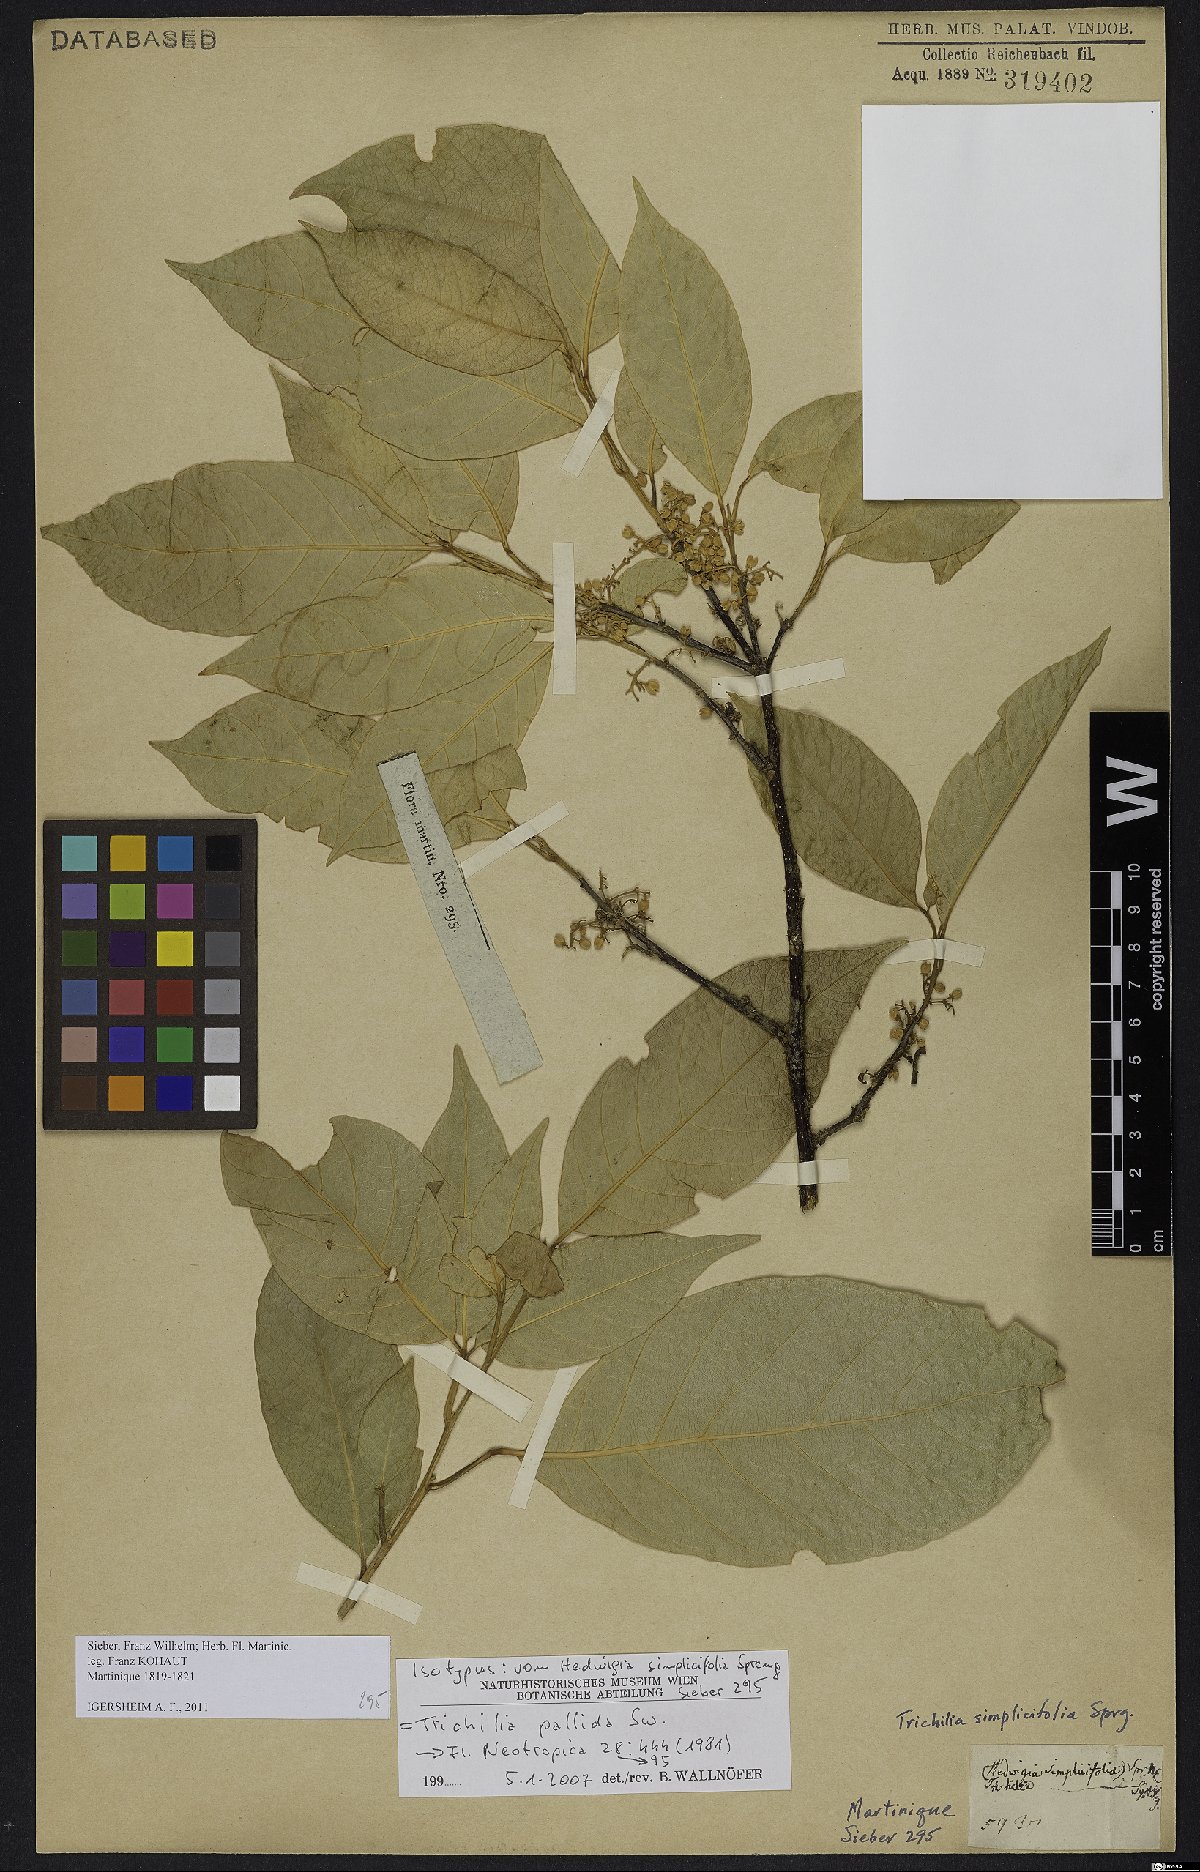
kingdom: Plantae
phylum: Tracheophyta
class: Magnoliopsida
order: Sapindales
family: Meliaceae
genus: Trichilia
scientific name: Trichilia pallida
